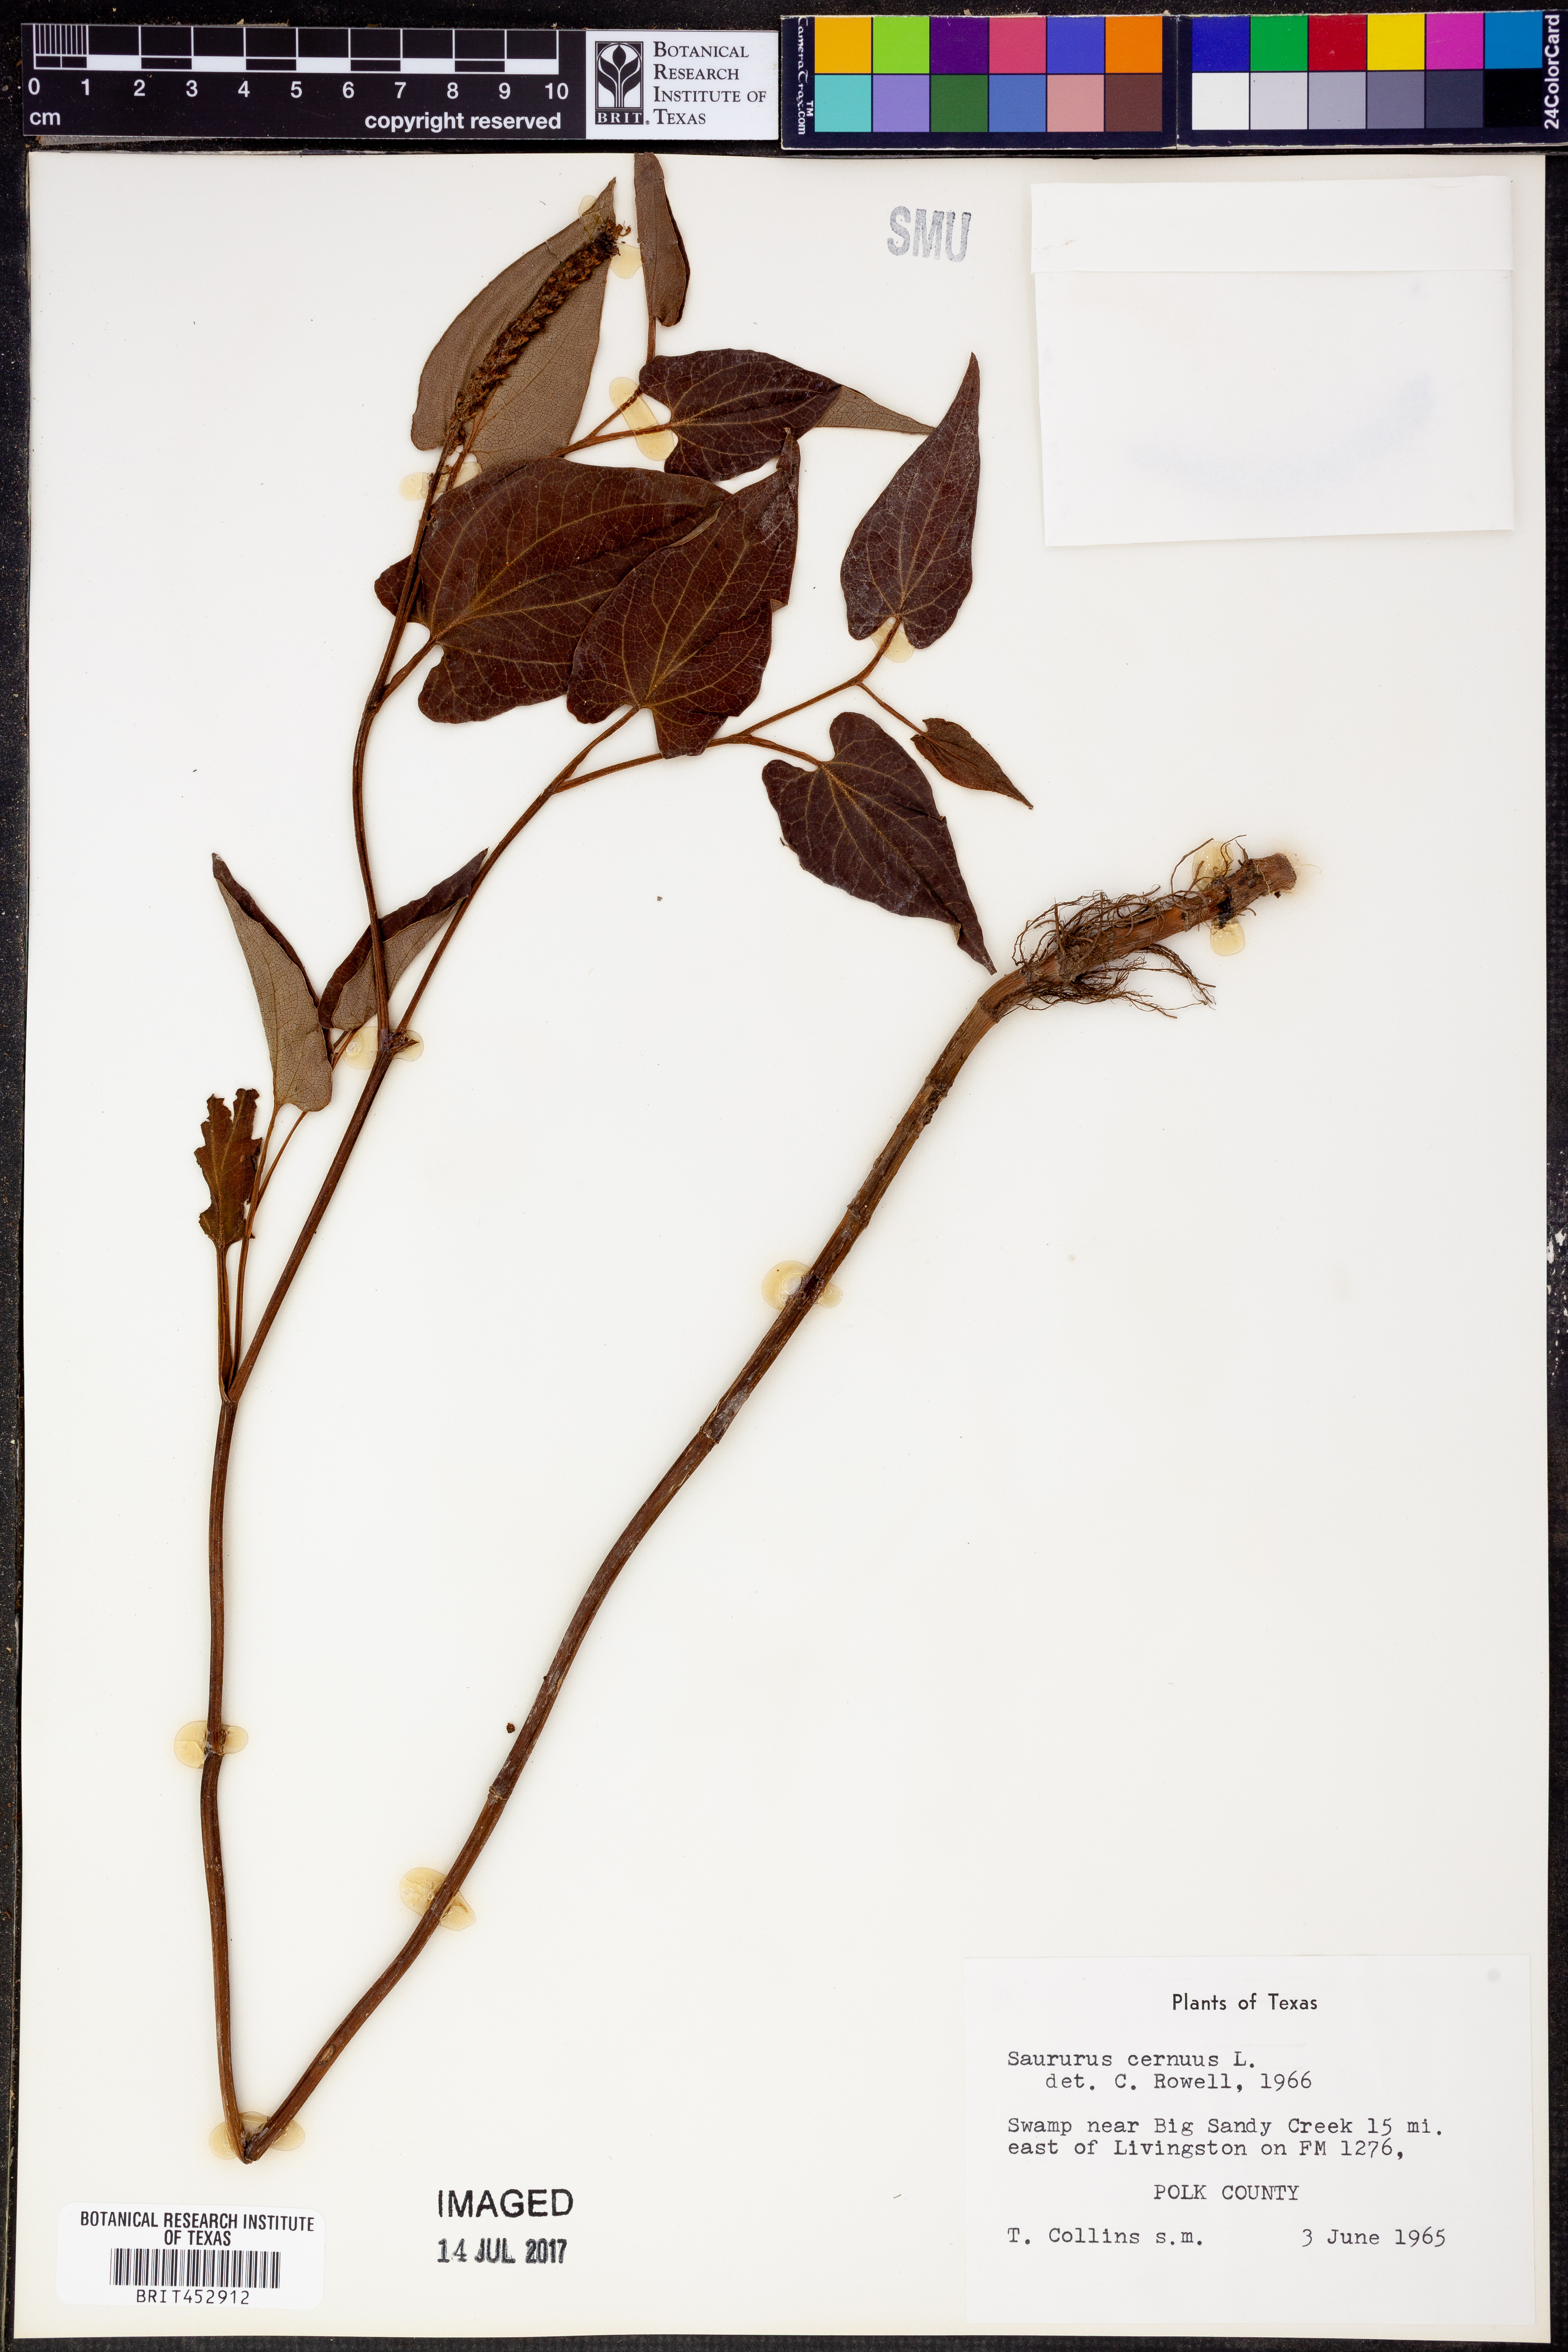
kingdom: Plantae
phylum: Tracheophyta
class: Magnoliopsida
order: Piperales
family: Saururaceae
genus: Saururus
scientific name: Saururus cernuus
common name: Lizard's-tail
